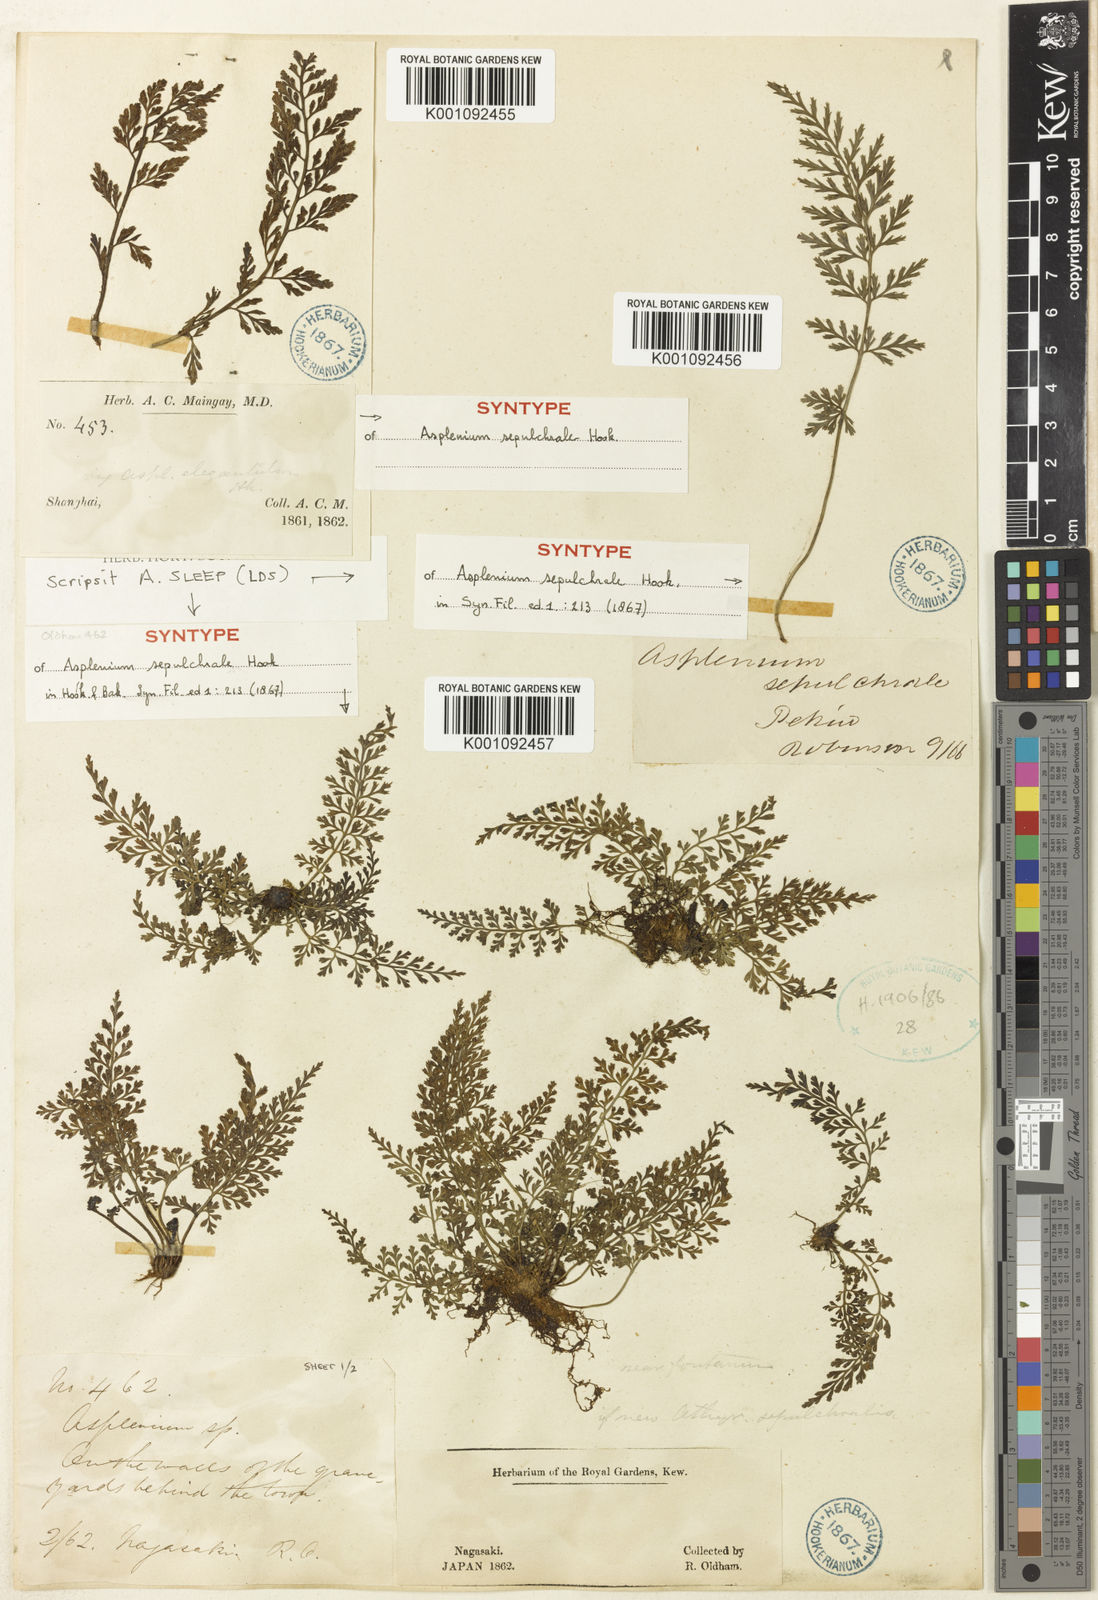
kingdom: Plantae
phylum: Tracheophyta
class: Polypodiopsida
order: Polypodiales
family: Aspleniaceae
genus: Asplenium
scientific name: Asplenium sarelii
